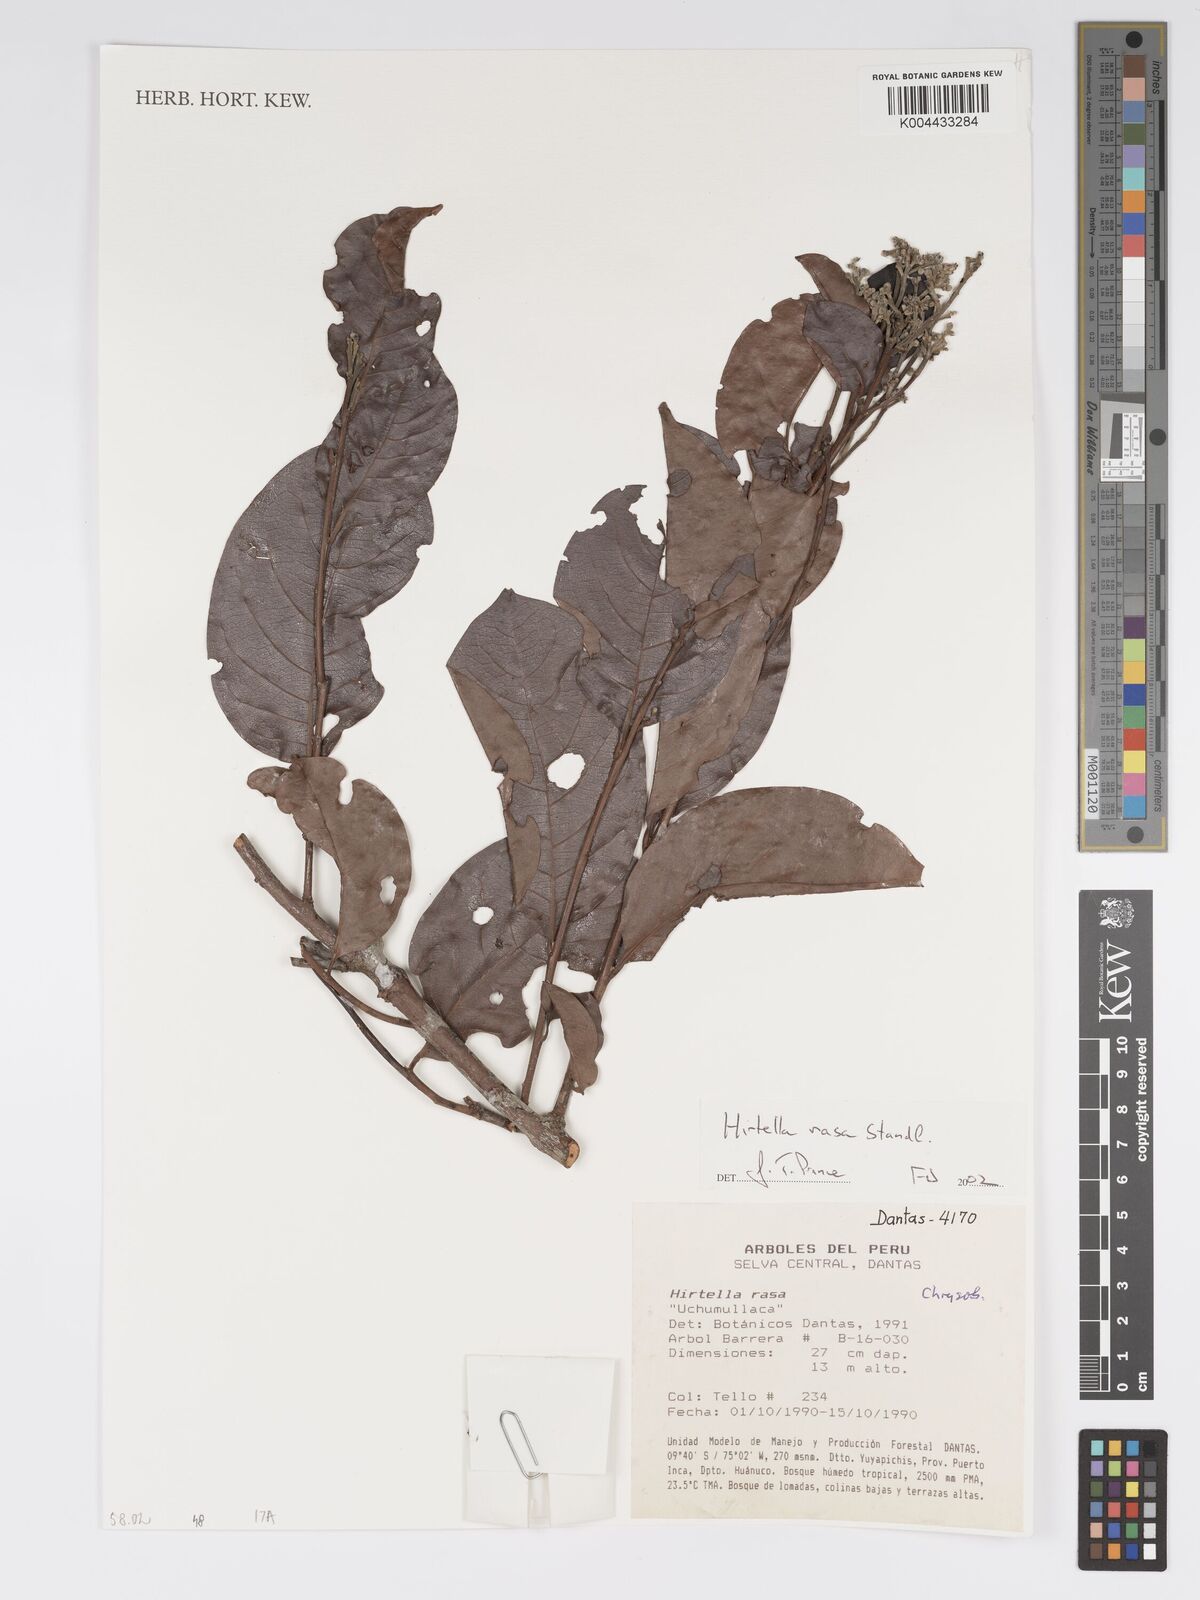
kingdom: Plantae
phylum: Tracheophyta
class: Magnoliopsida
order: Malpighiales
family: Chrysobalanaceae
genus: Hirtella
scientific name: Hirtella rasa
